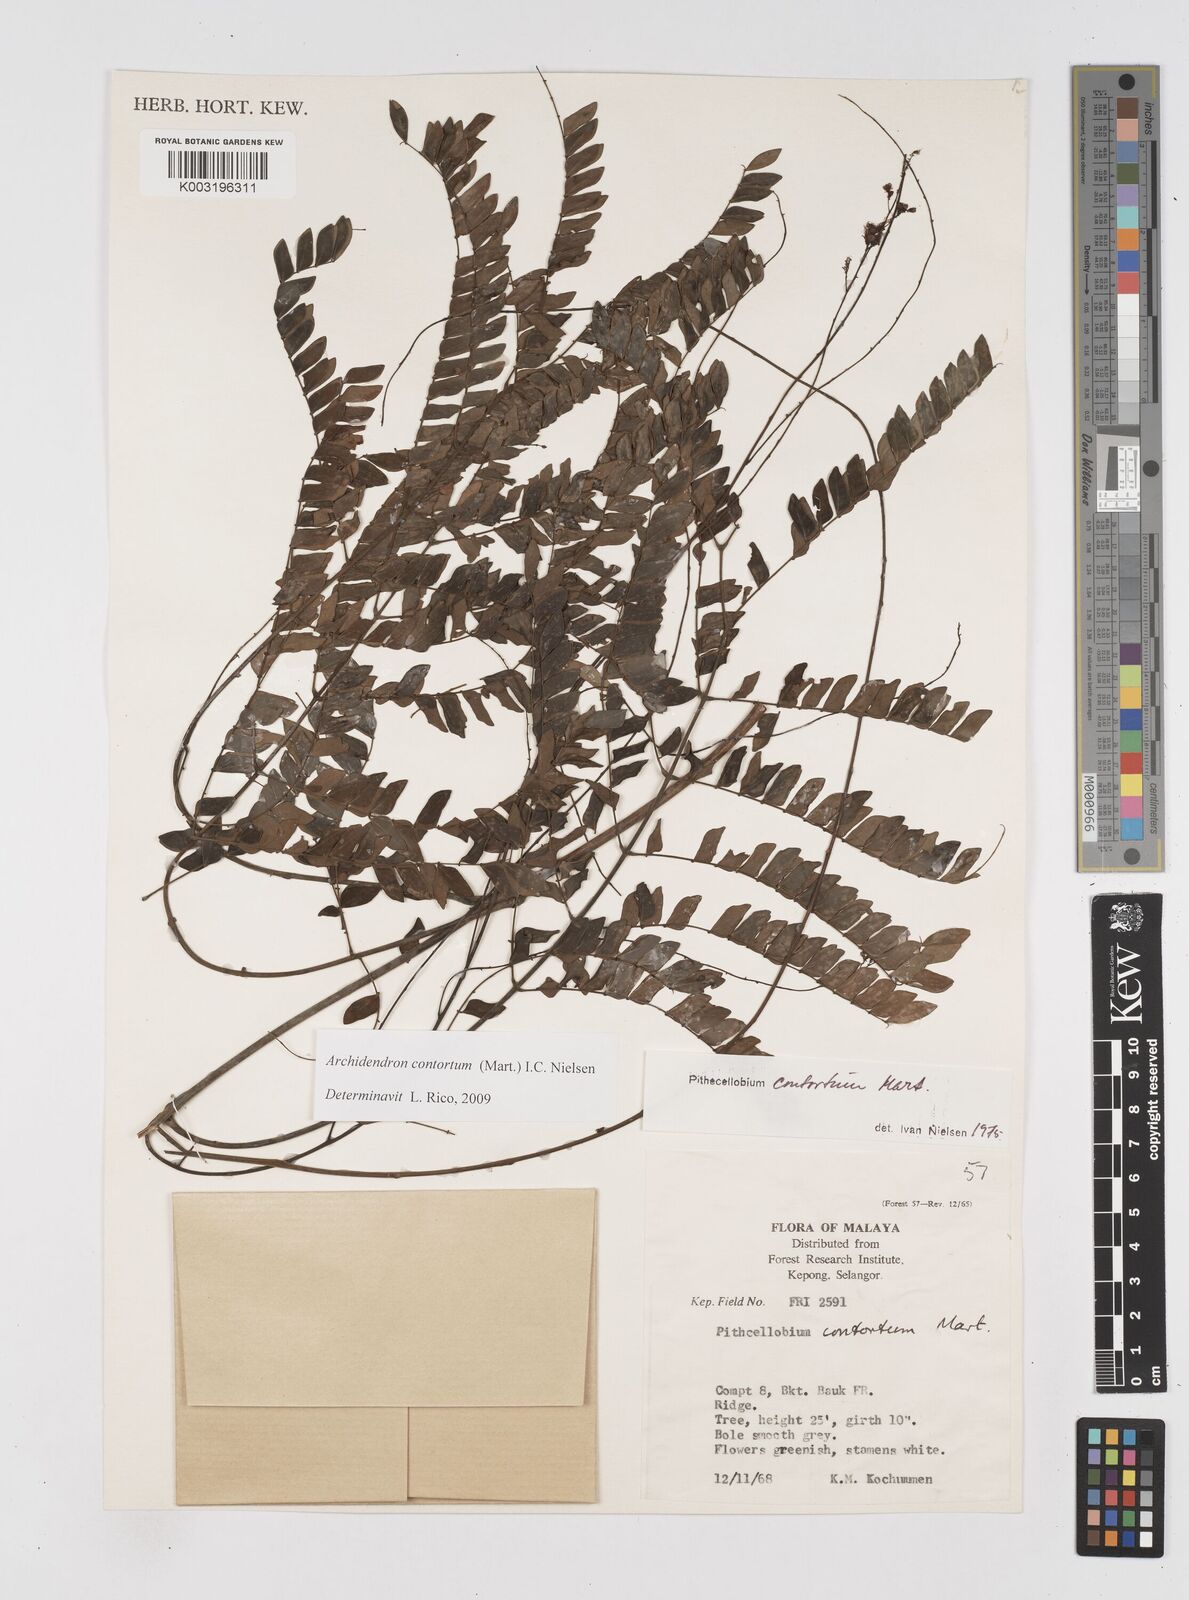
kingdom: Plantae
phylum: Tracheophyta
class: Magnoliopsida
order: Fabales
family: Fabaceae
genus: Archidendron
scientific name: Archidendron contortum
